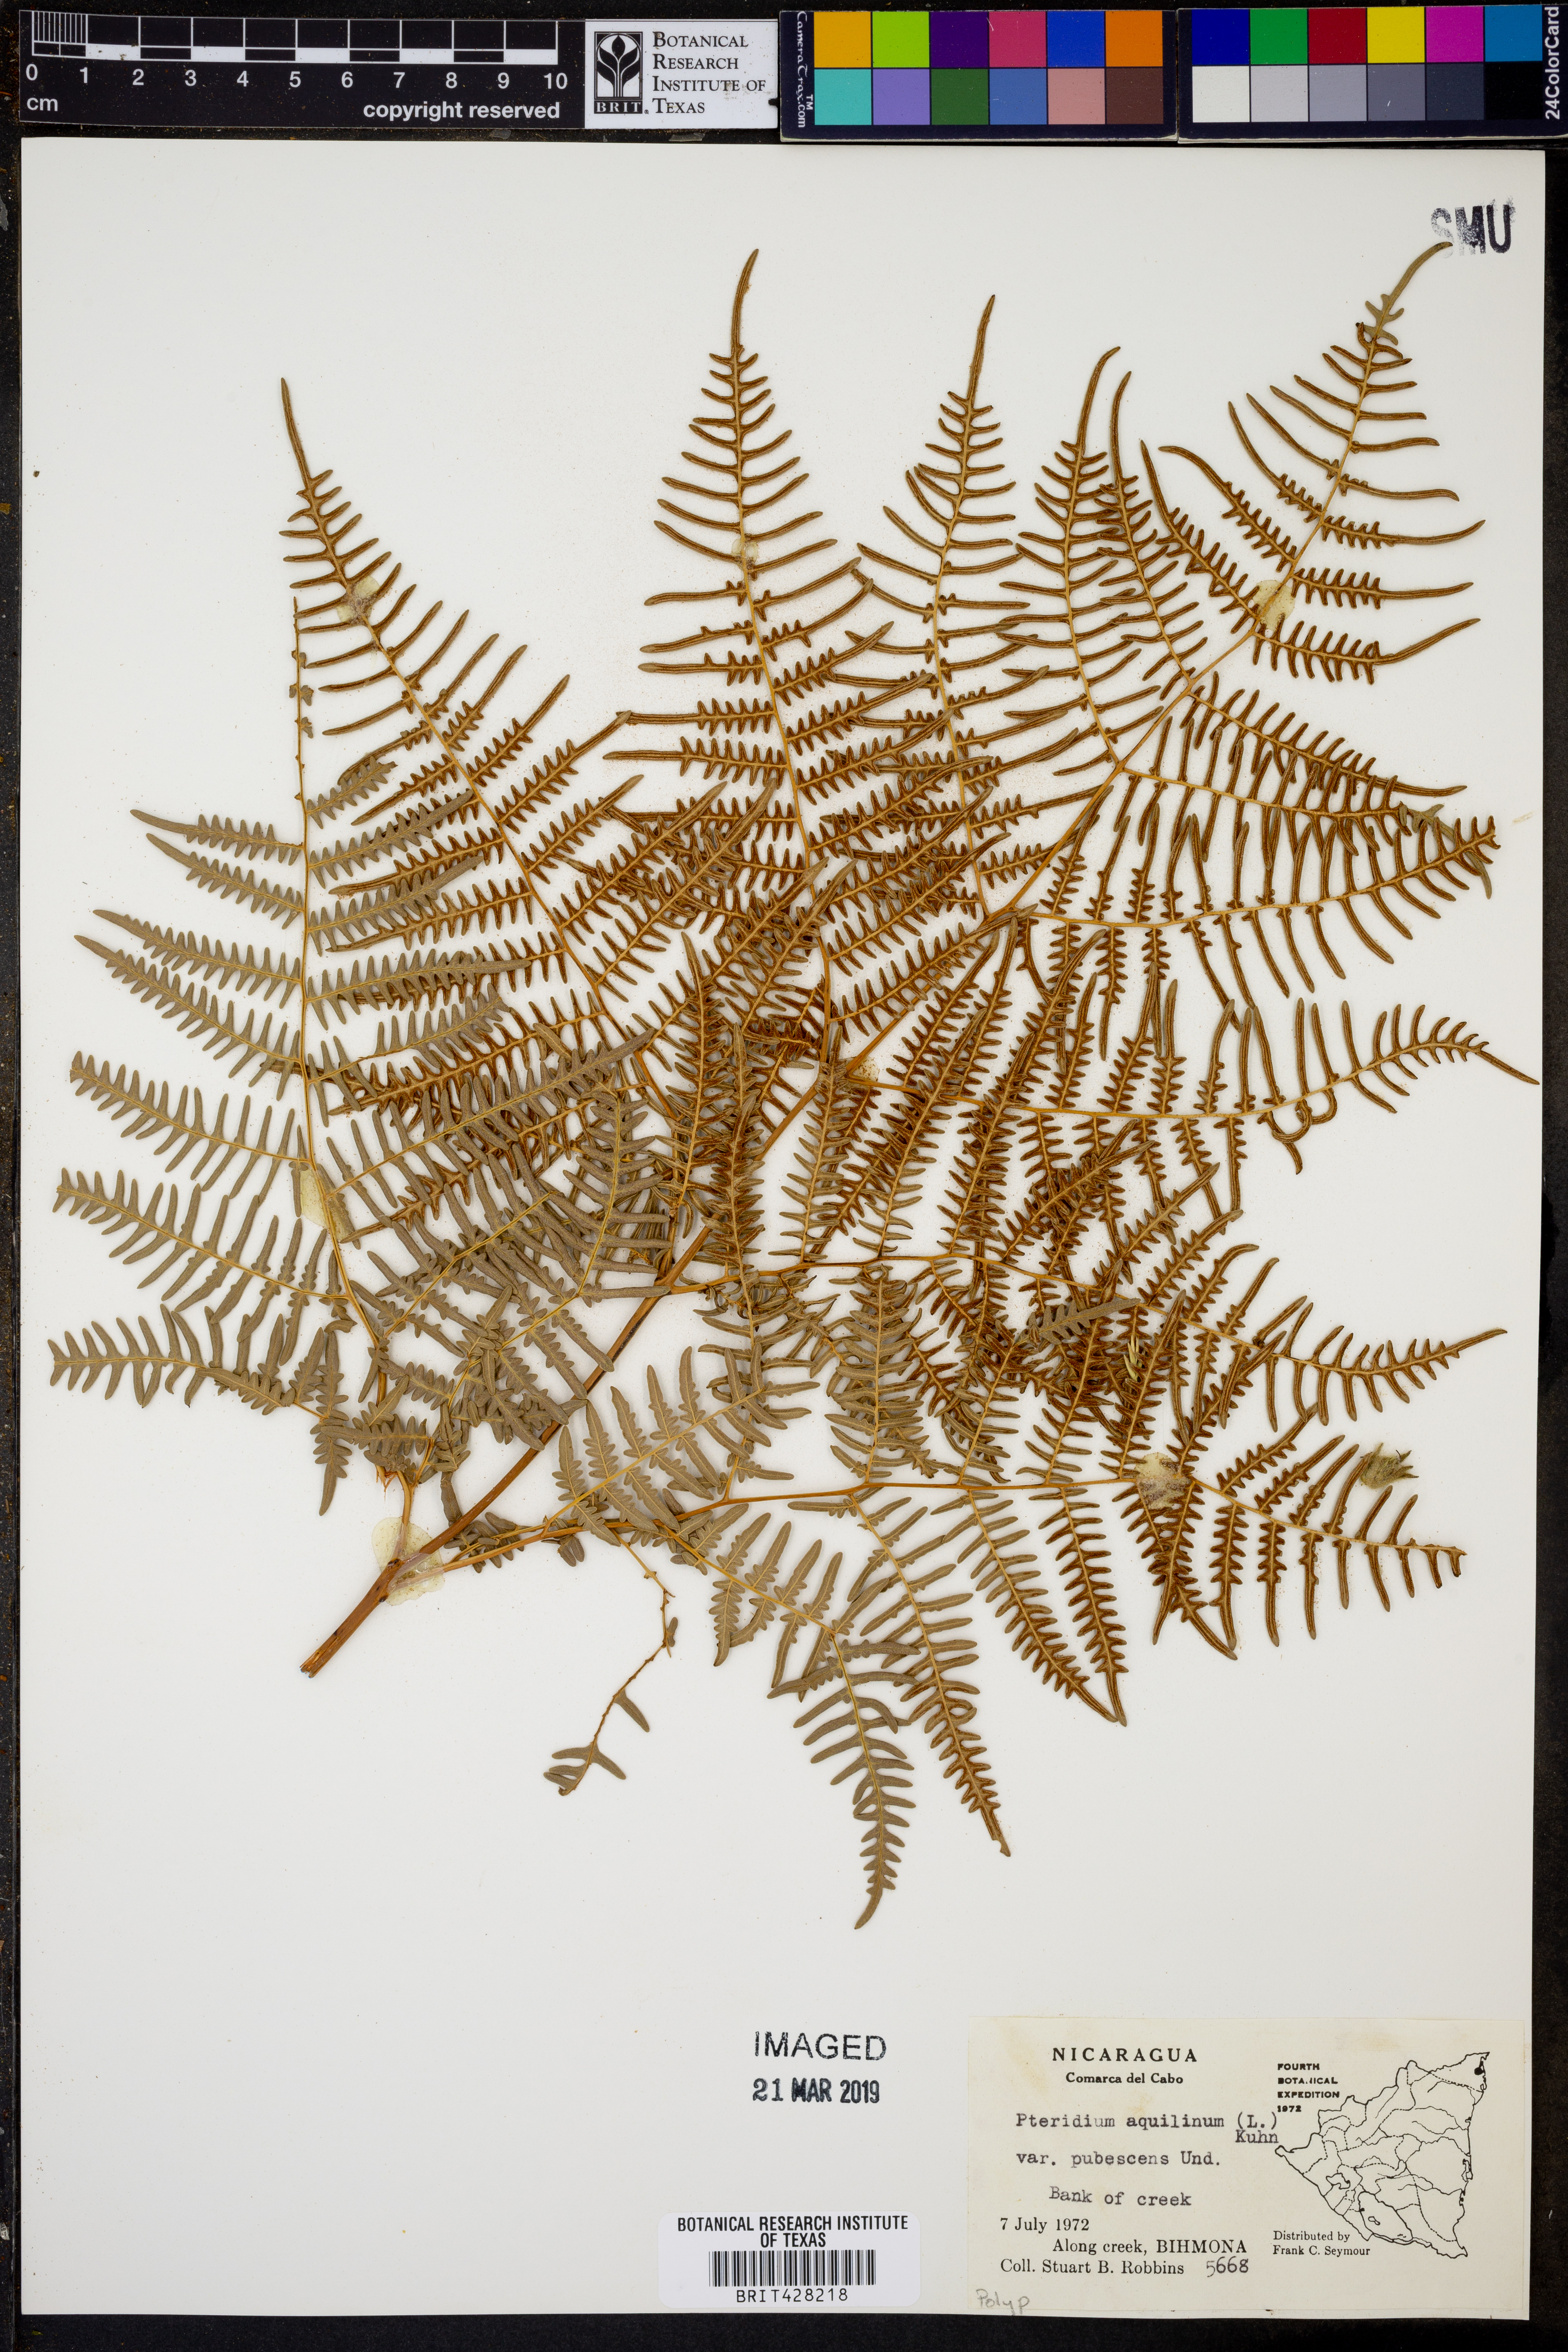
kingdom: Plantae
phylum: Tracheophyta
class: Polypodiopsida
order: Polypodiales
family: Dennstaedtiaceae
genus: Pteridium
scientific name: Pteridium aquilinum
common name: Bracken
